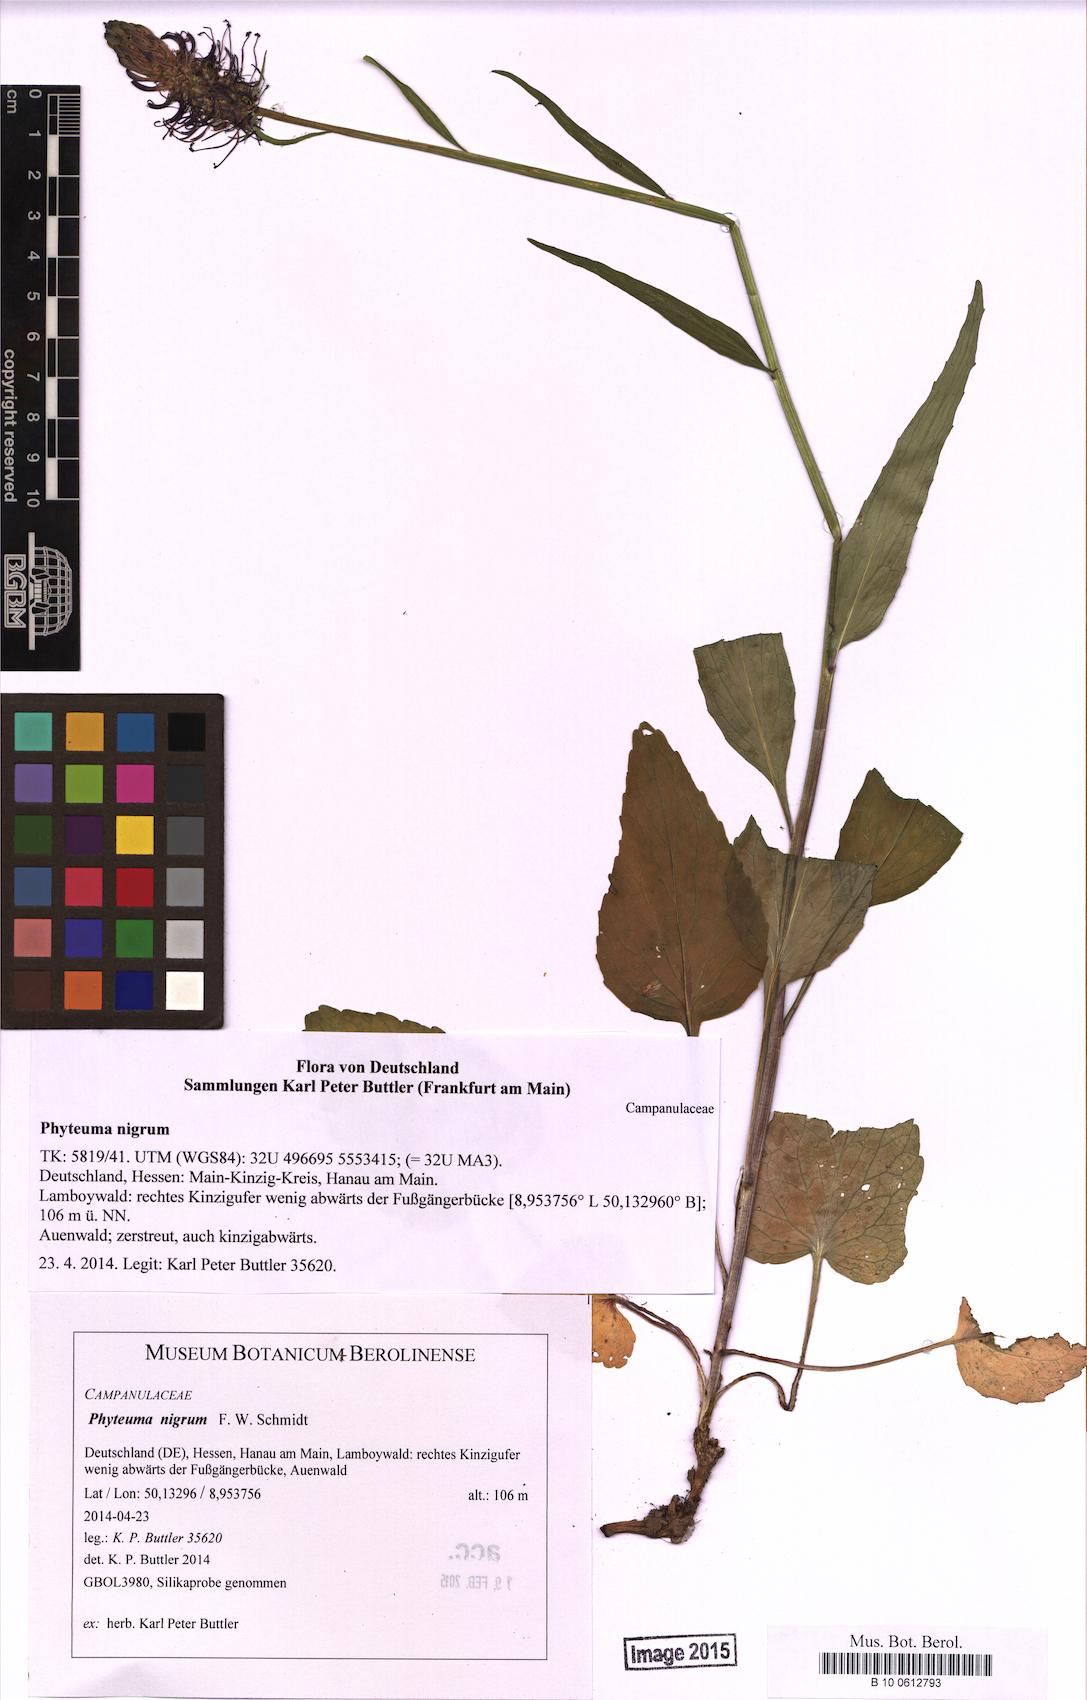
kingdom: Plantae
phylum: Tracheophyta
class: Magnoliopsida
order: Asterales
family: Campanulaceae
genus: Phyteuma
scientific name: Phyteuma nigrum
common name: Black rampion
